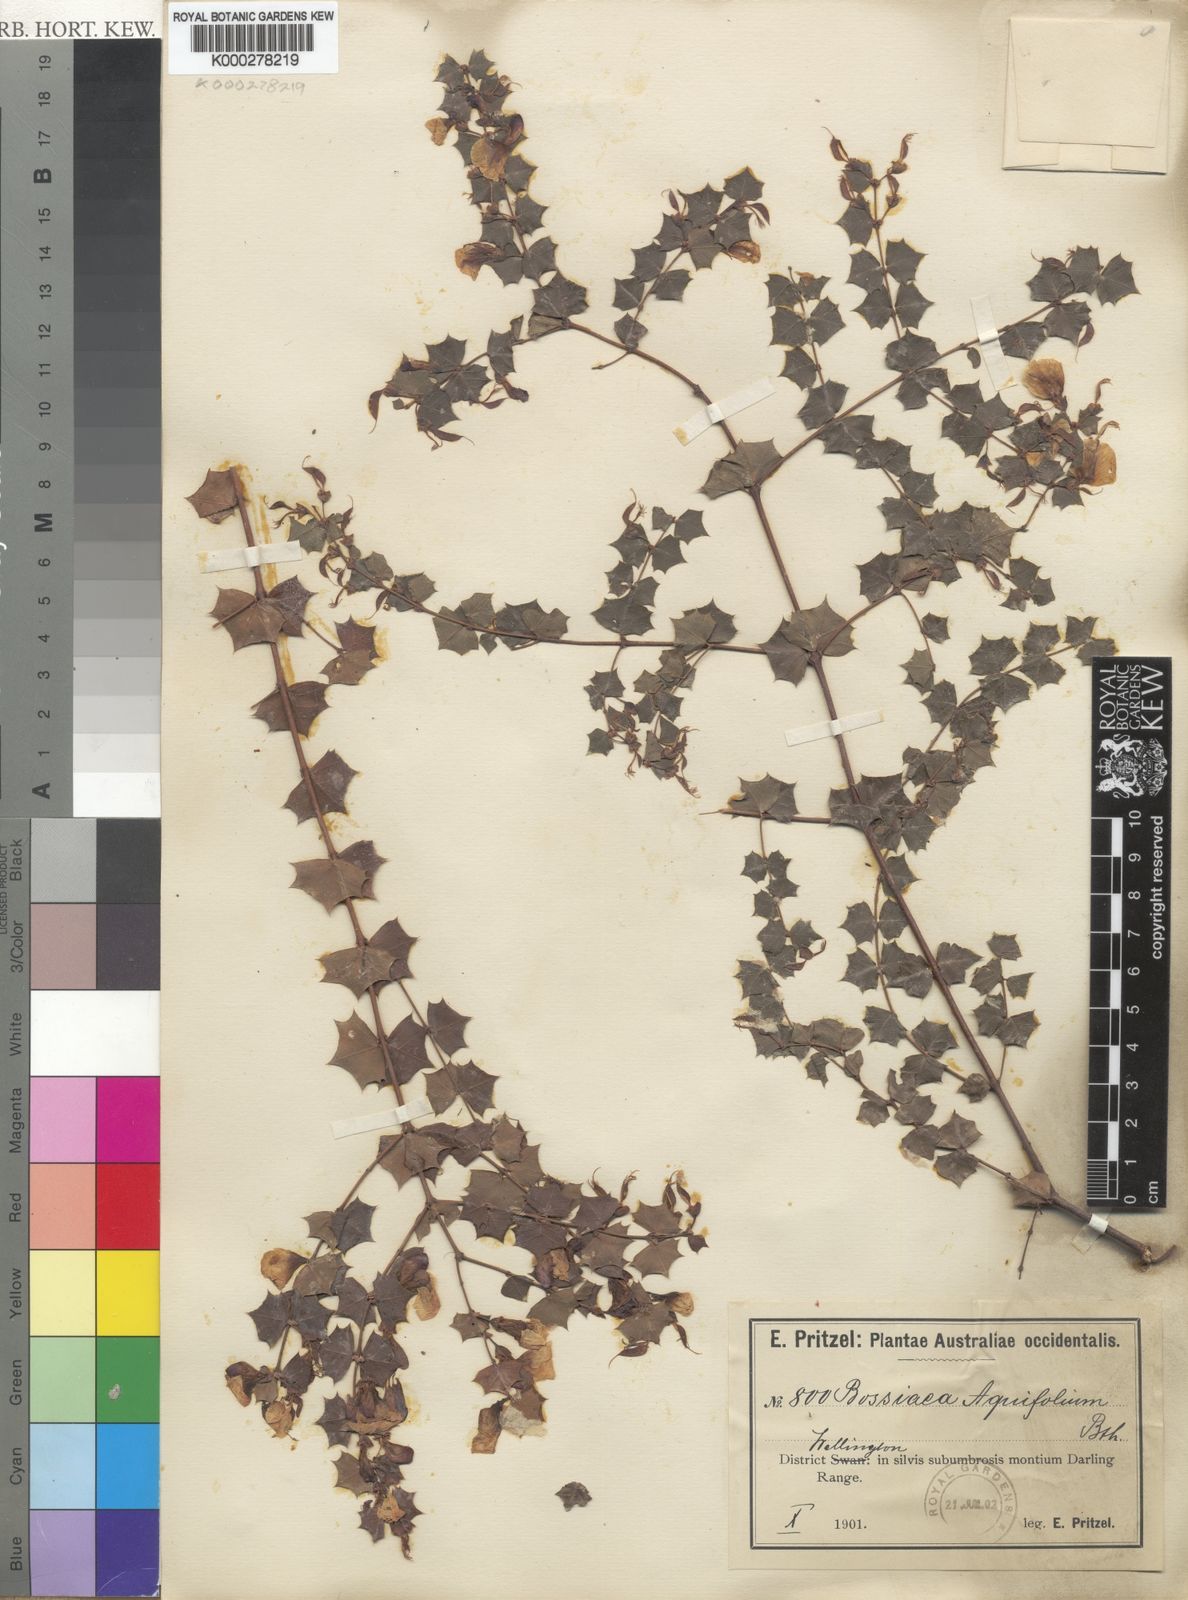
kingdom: Plantae
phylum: Tracheophyta
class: Magnoliopsida
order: Fabales
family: Fabaceae
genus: Bossiaea
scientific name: Bossiaea aquifolium
